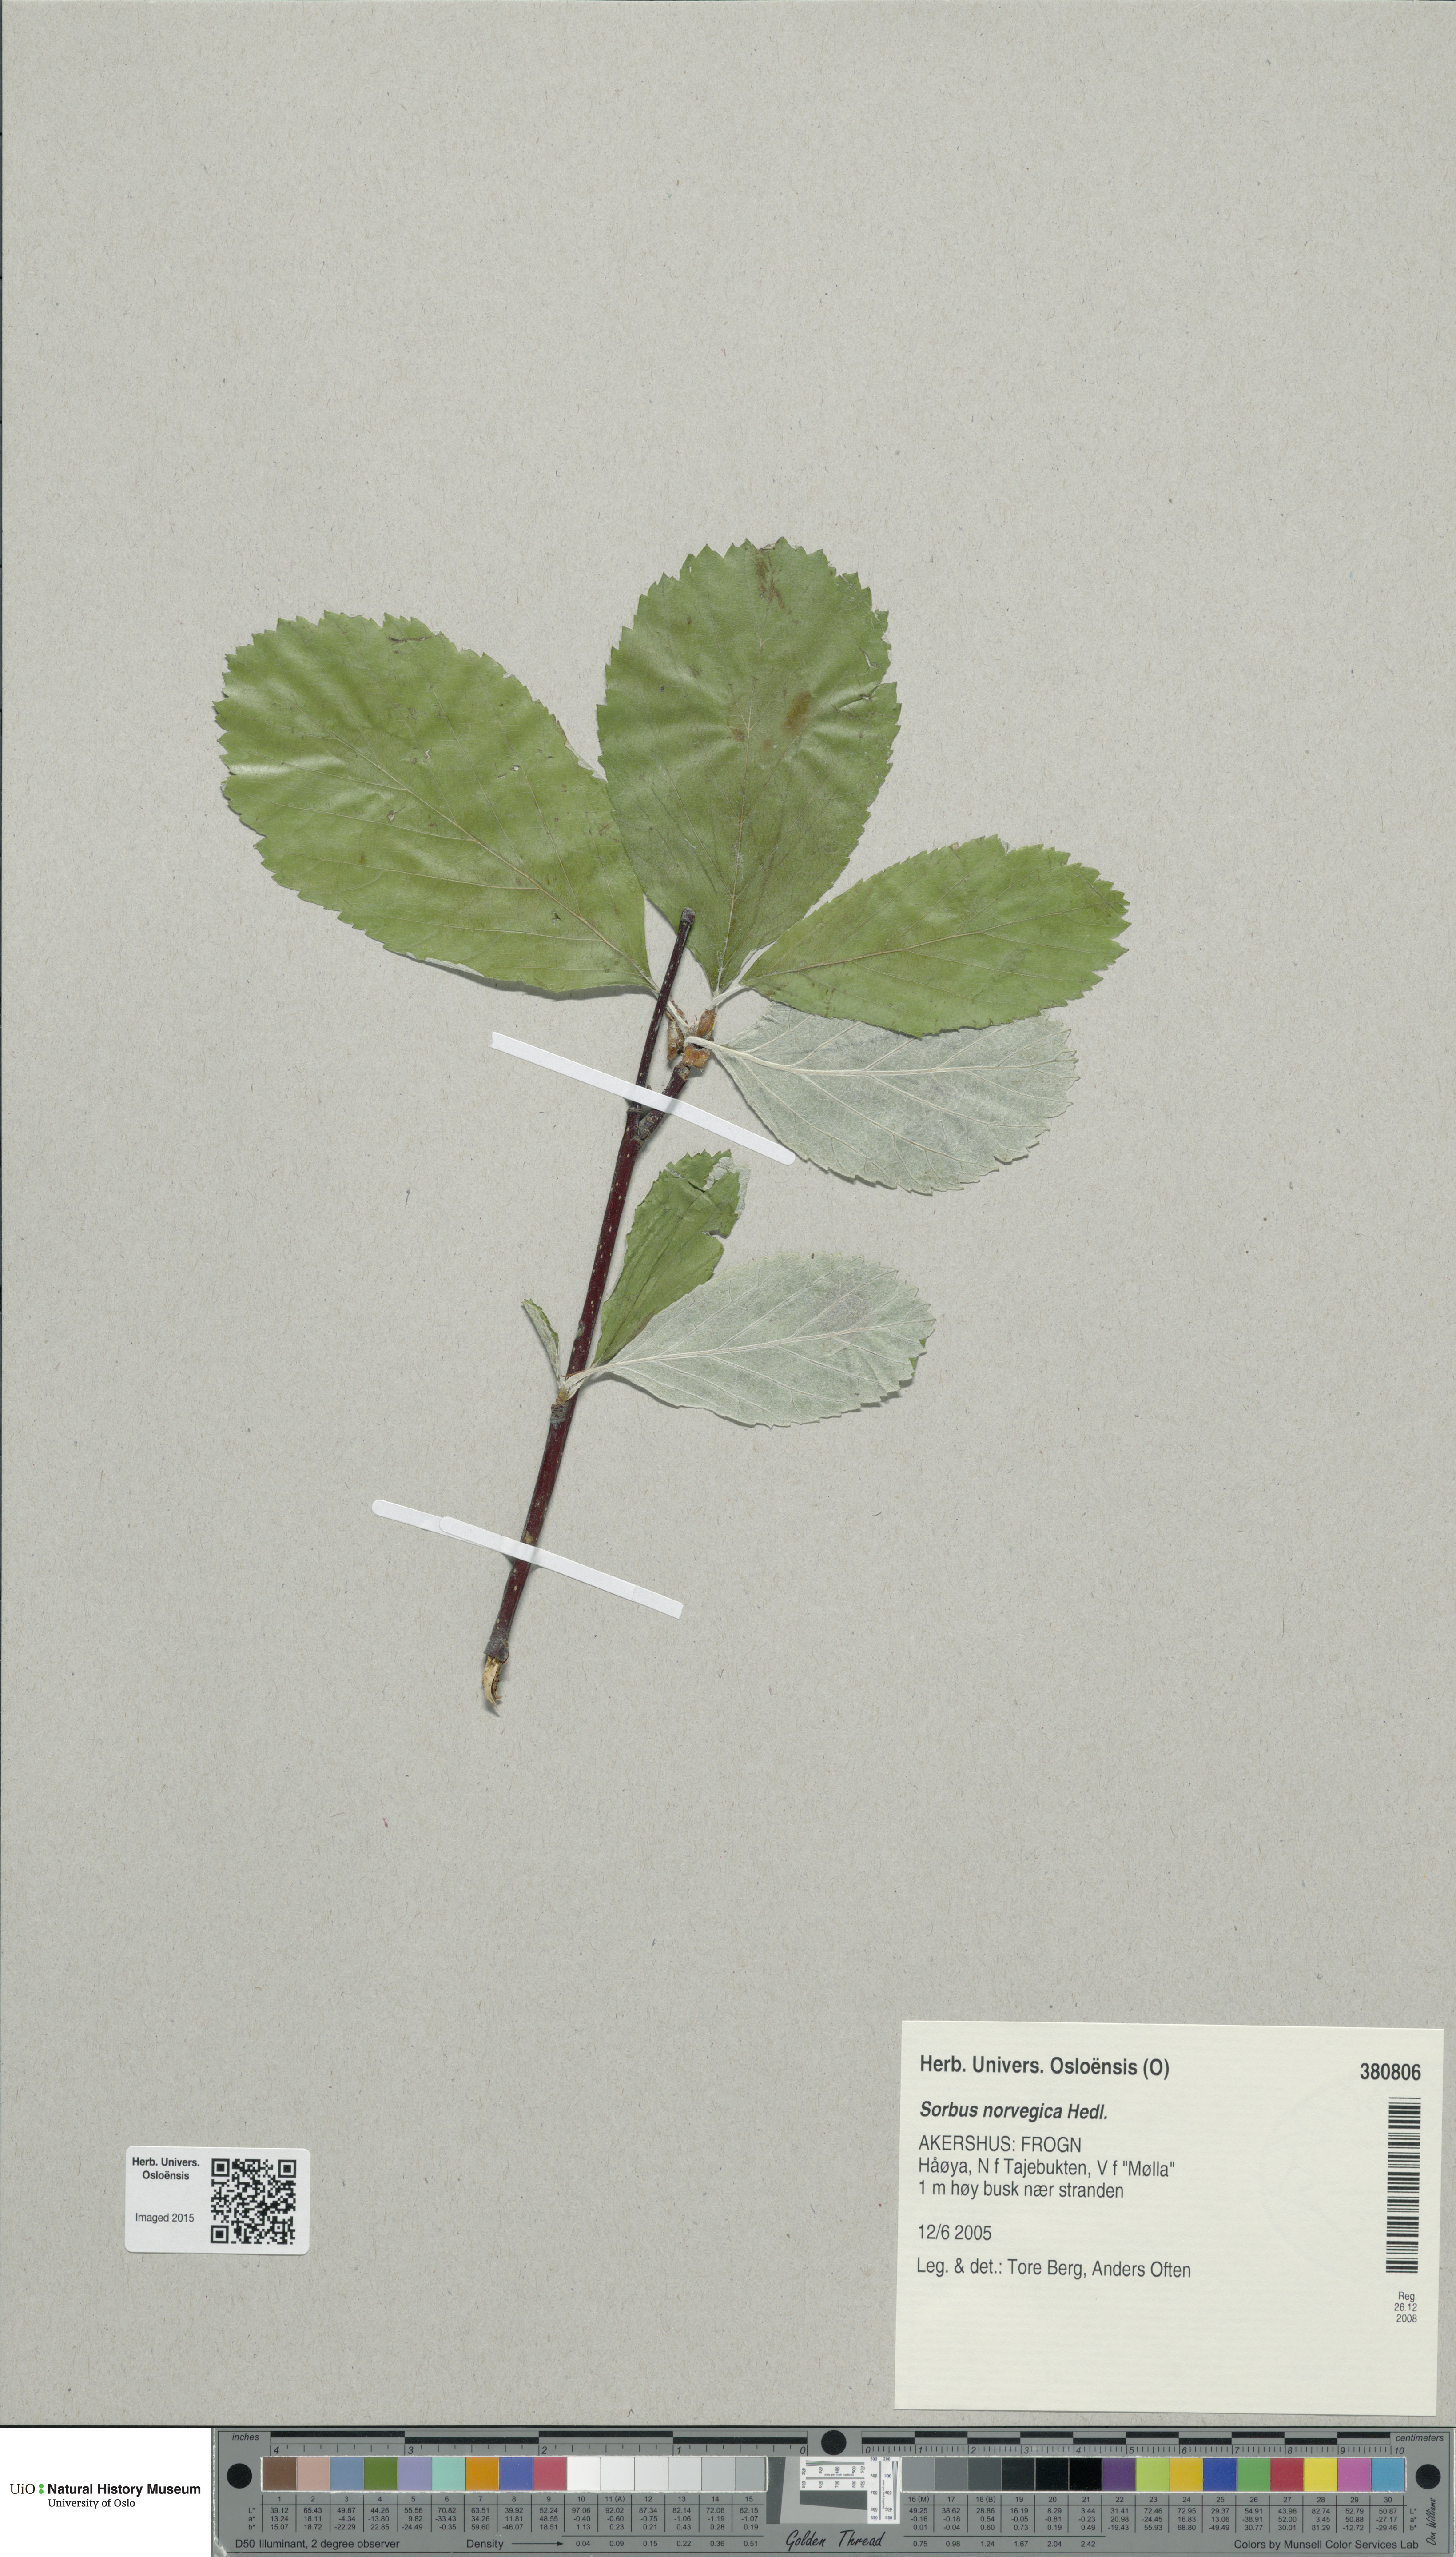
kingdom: Plantae
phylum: Tracheophyta
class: Magnoliopsida
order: Rosales
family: Rosaceae
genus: Aria
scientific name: Aria obtusifolia
